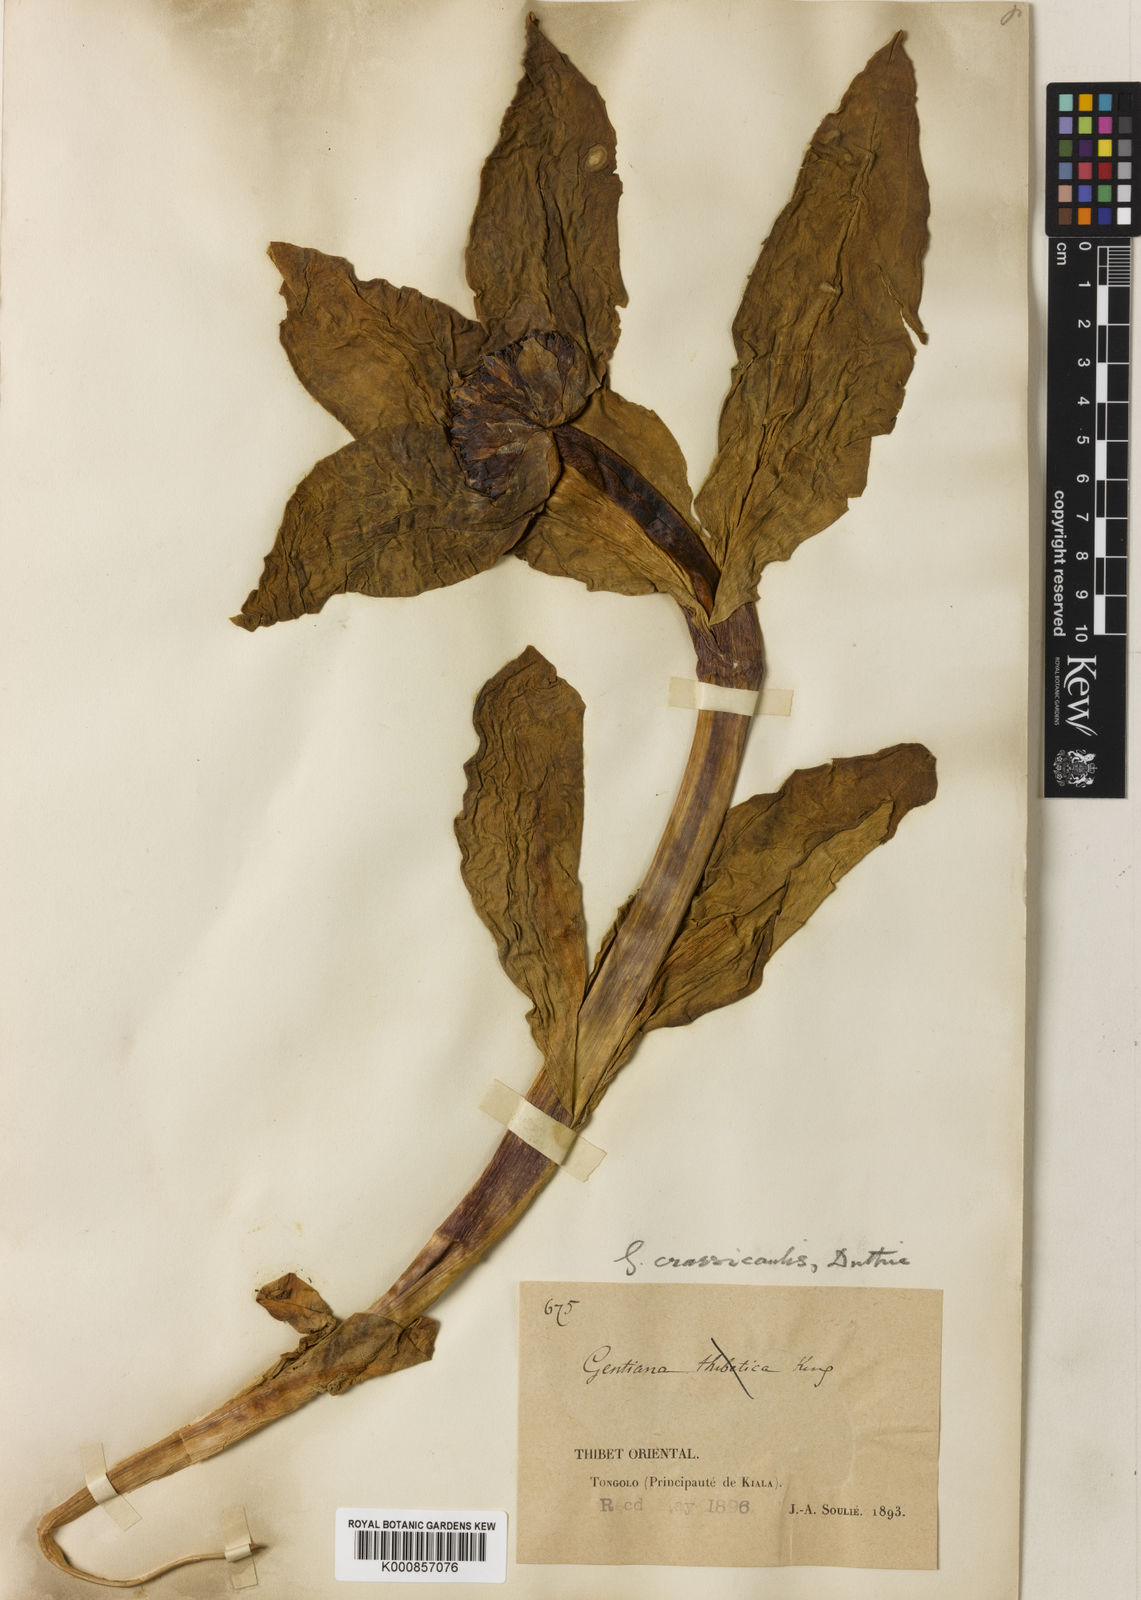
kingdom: Plantae
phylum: Tracheophyta
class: Magnoliopsida
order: Gentianales
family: Gentianaceae
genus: Gentiana
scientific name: Gentiana
